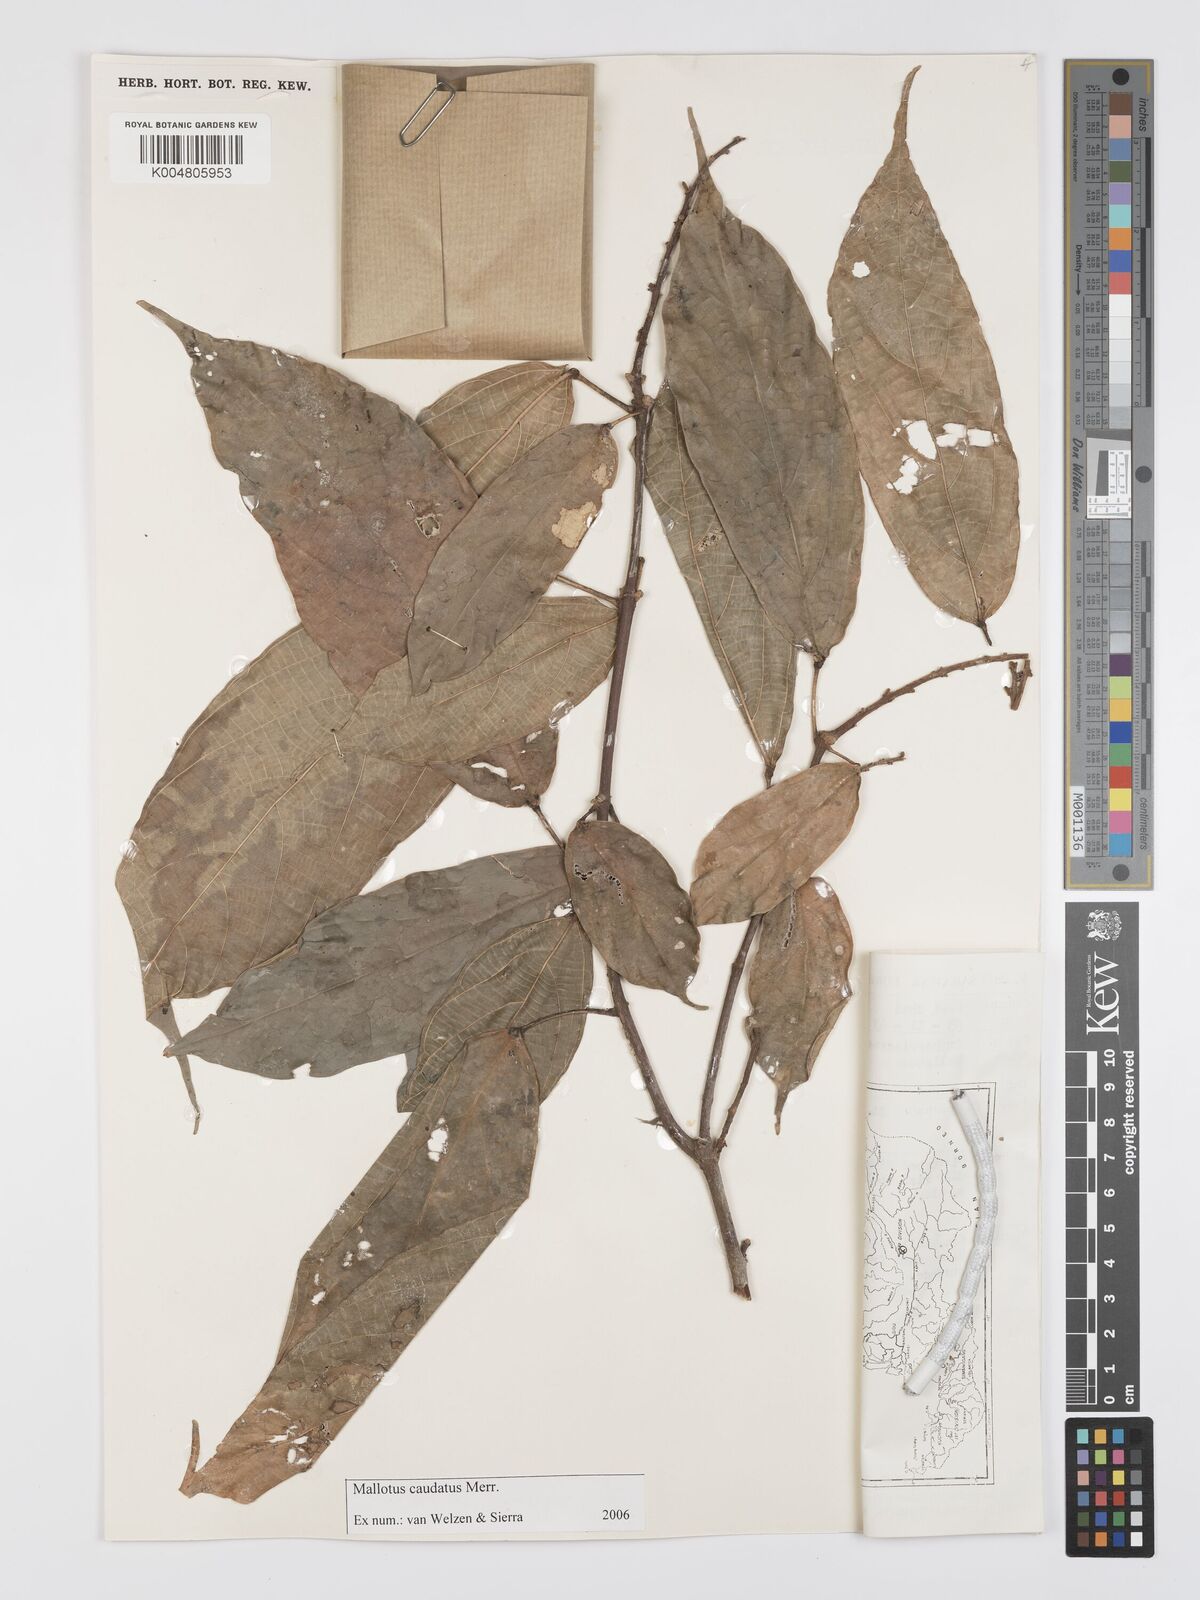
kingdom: Plantae
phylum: Tracheophyta
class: Magnoliopsida
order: Malpighiales
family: Euphorbiaceae
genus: Mallotus
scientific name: Mallotus caudatus
